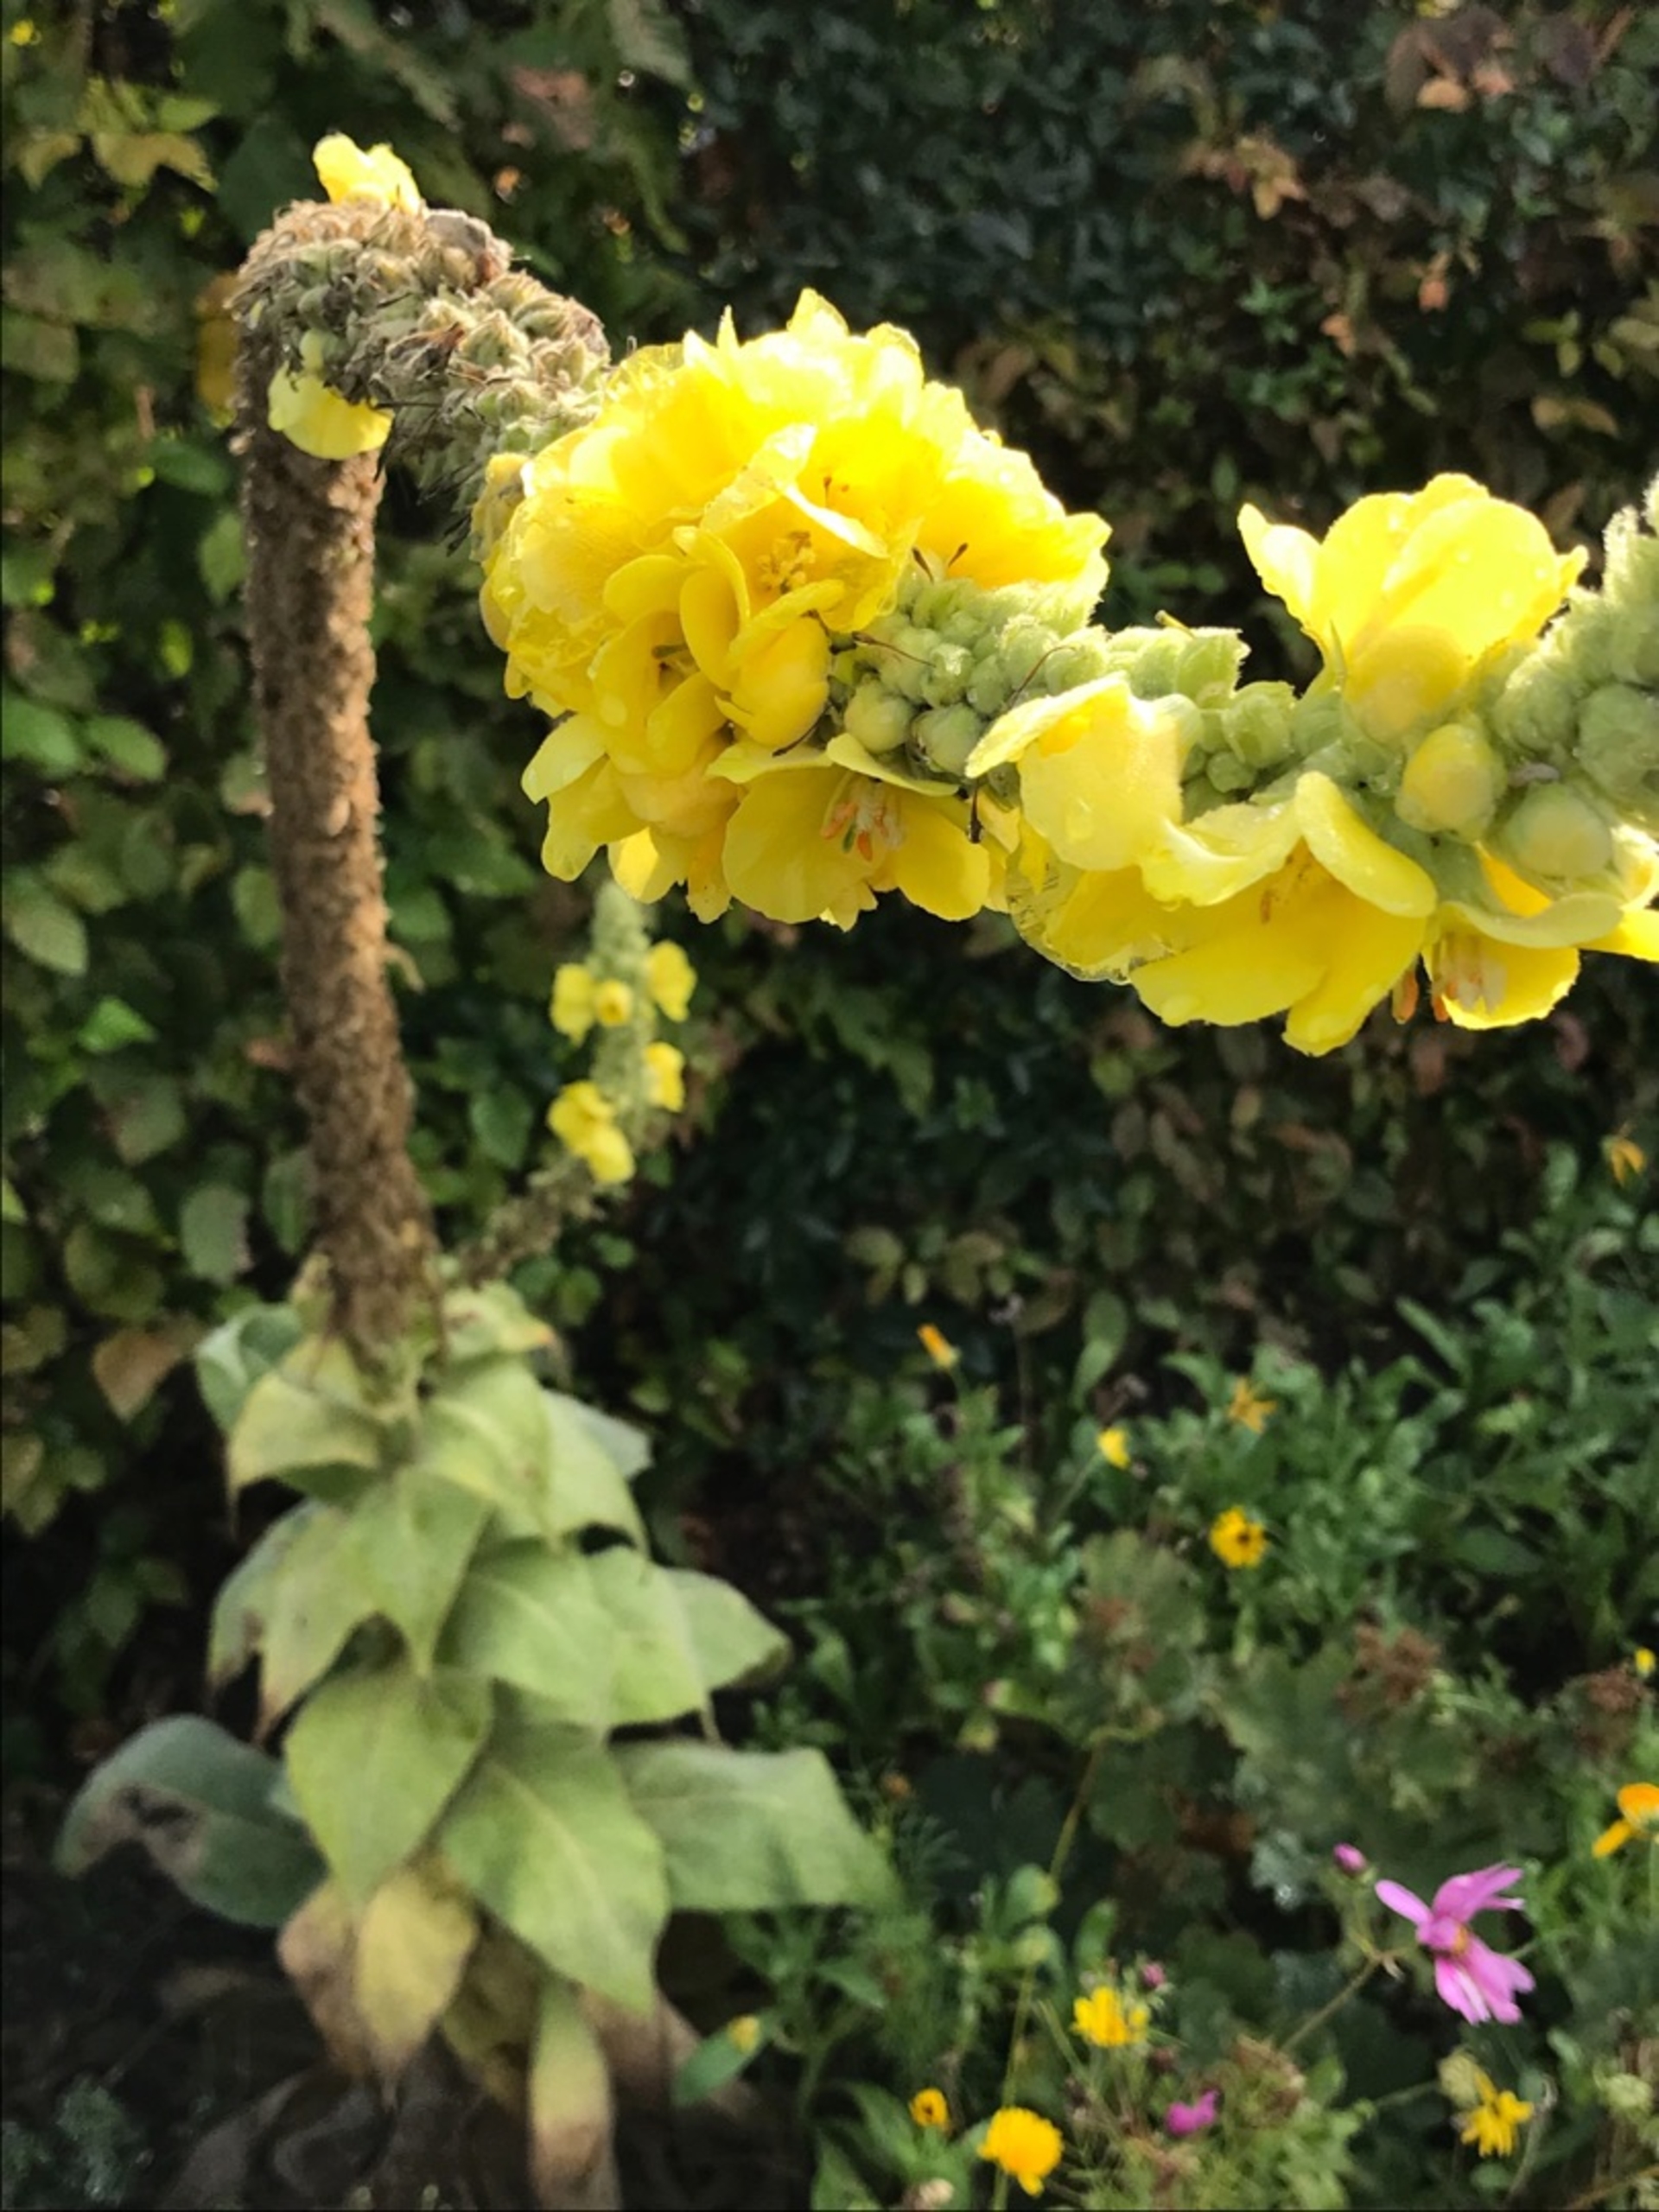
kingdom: Plantae
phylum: Tracheophyta
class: Magnoliopsida
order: Lamiales
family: Scrophulariaceae
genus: Verbascum
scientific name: Verbascum densiflorum
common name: Uldbladet kongelys
